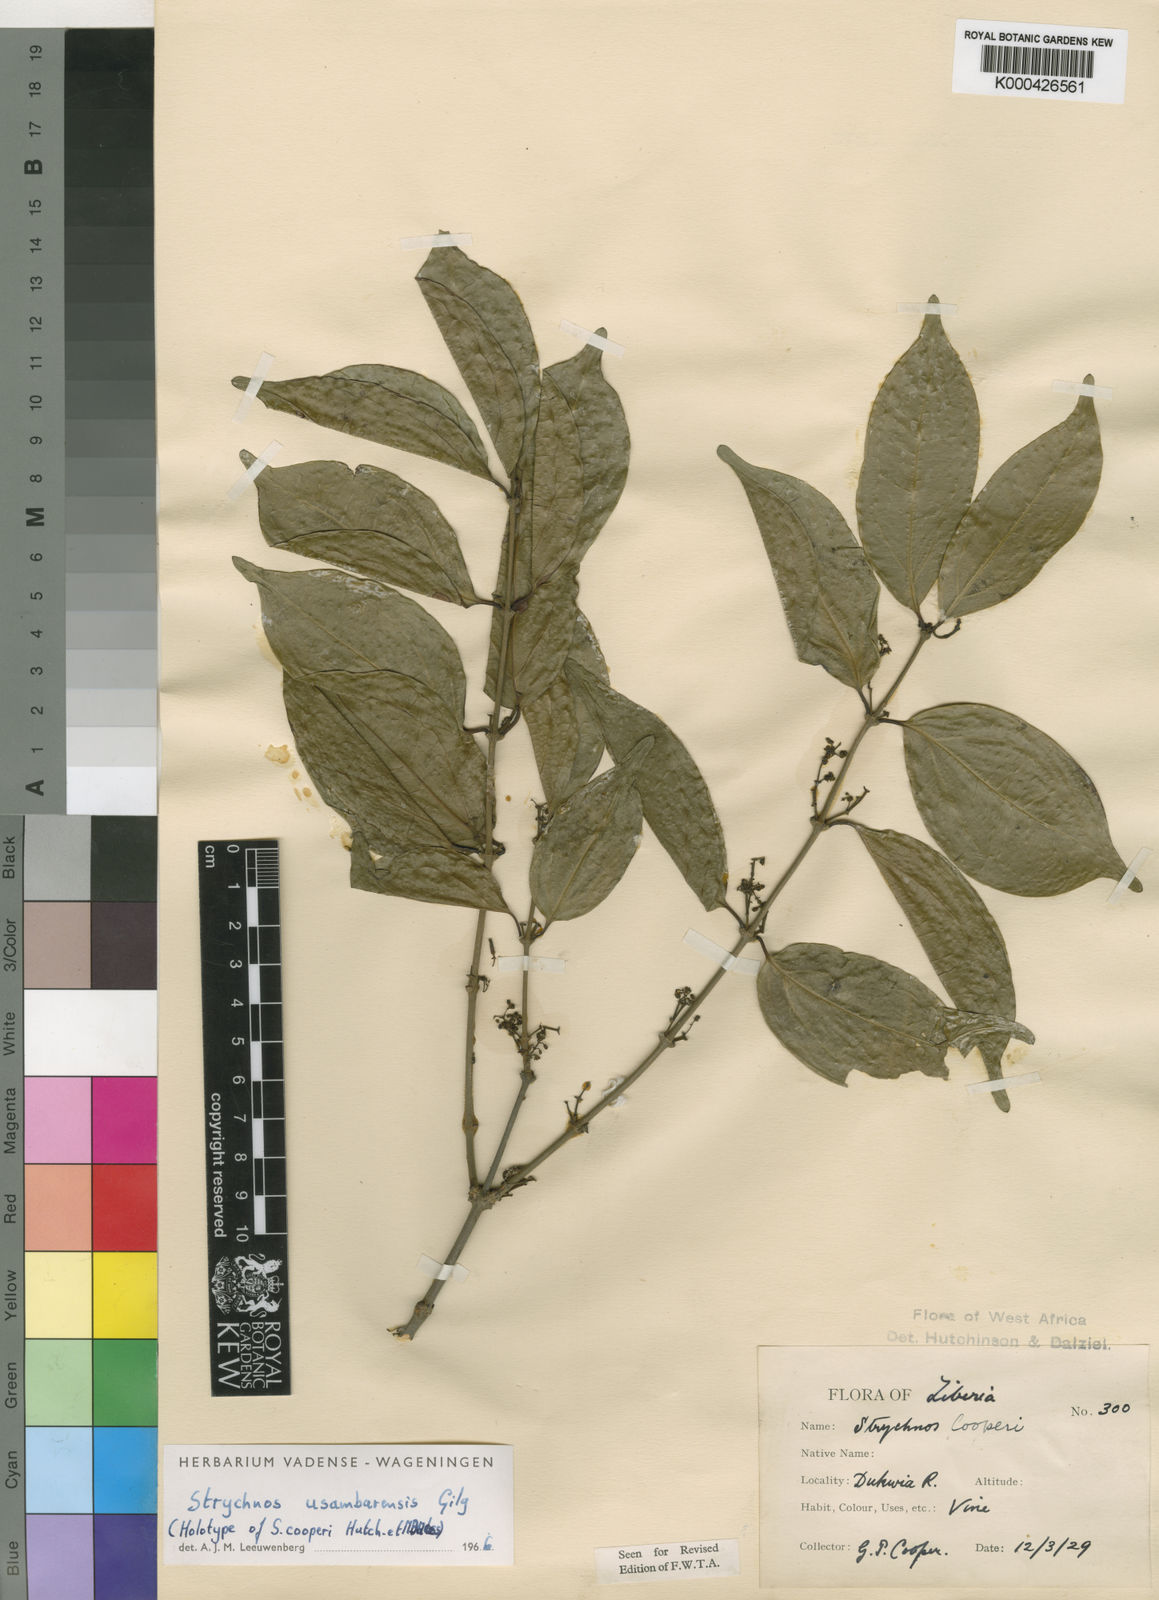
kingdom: Plantae
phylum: Tracheophyta
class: Magnoliopsida
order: Gentianales
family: Loganiaceae
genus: Strychnos
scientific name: Strychnos
